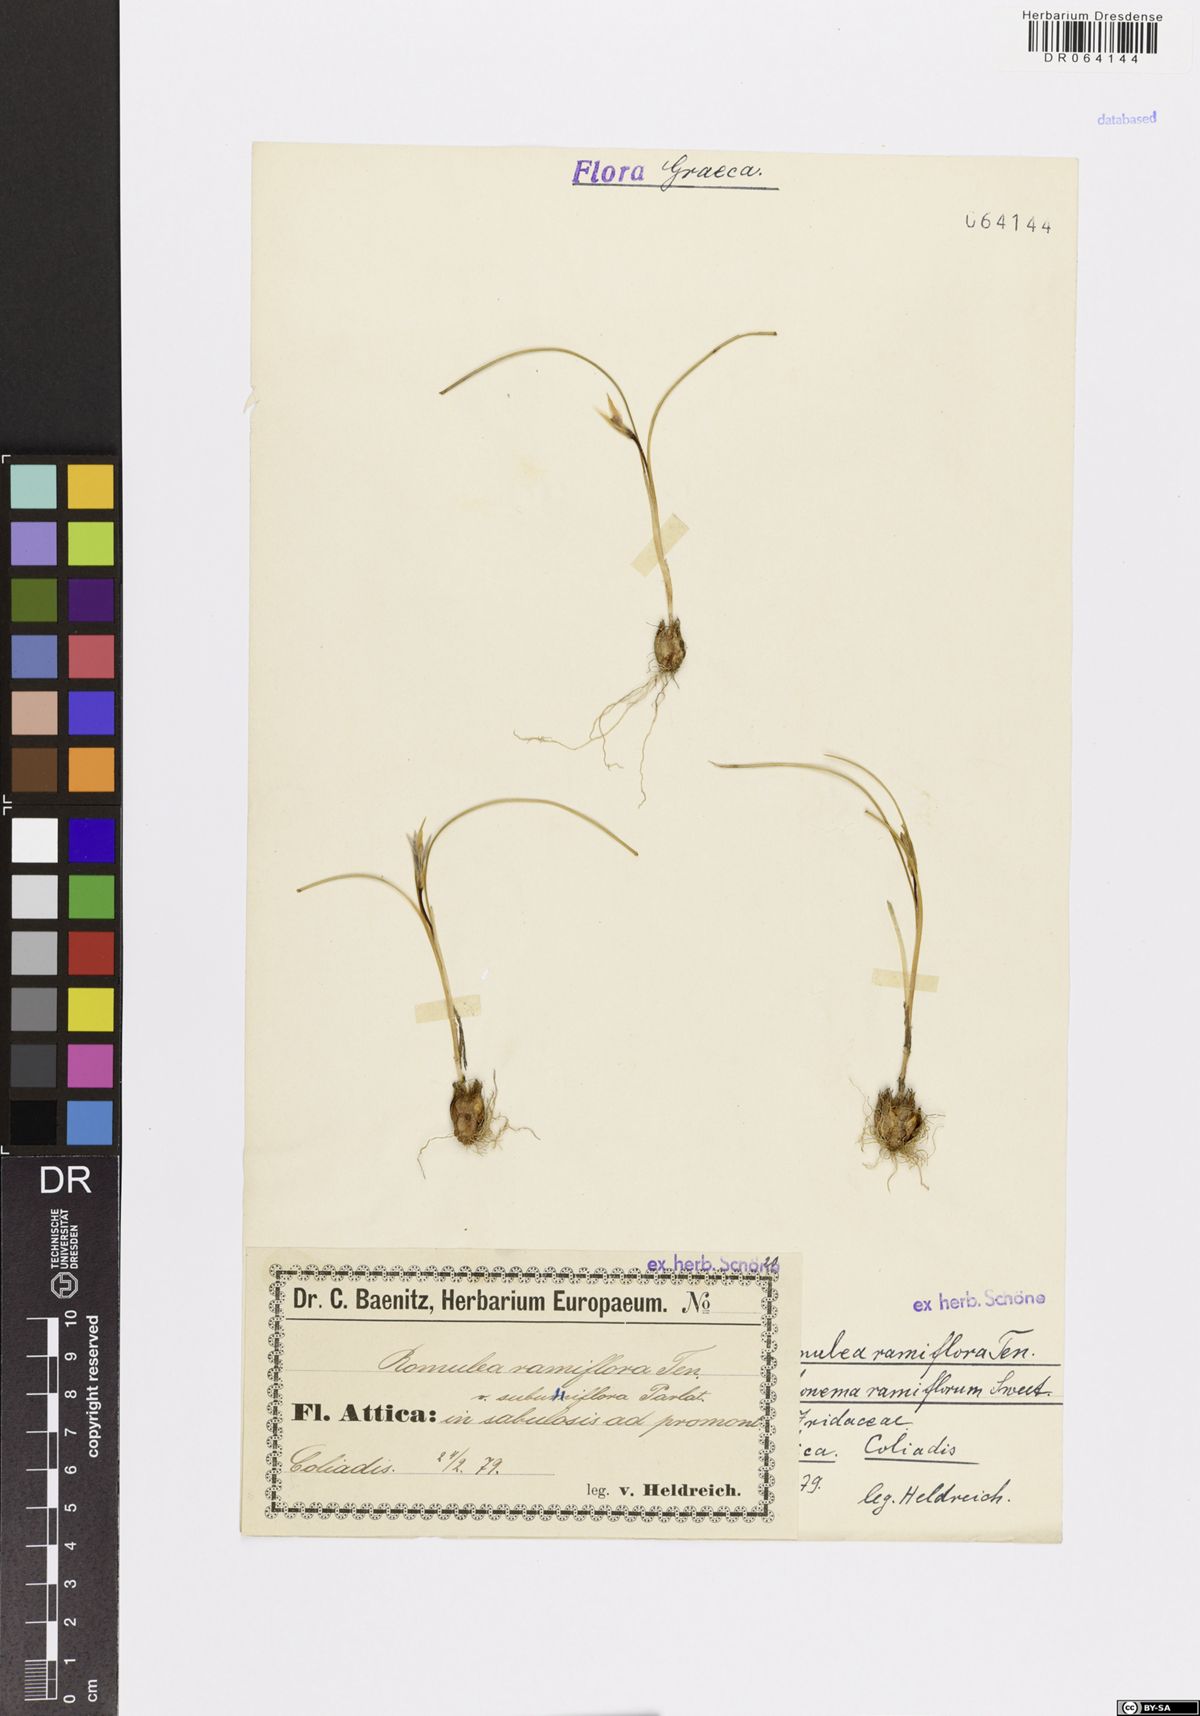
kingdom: Plantae
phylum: Tracheophyta
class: Liliopsida
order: Asparagales
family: Iridaceae
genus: Romulea
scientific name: Romulea ramiflora
